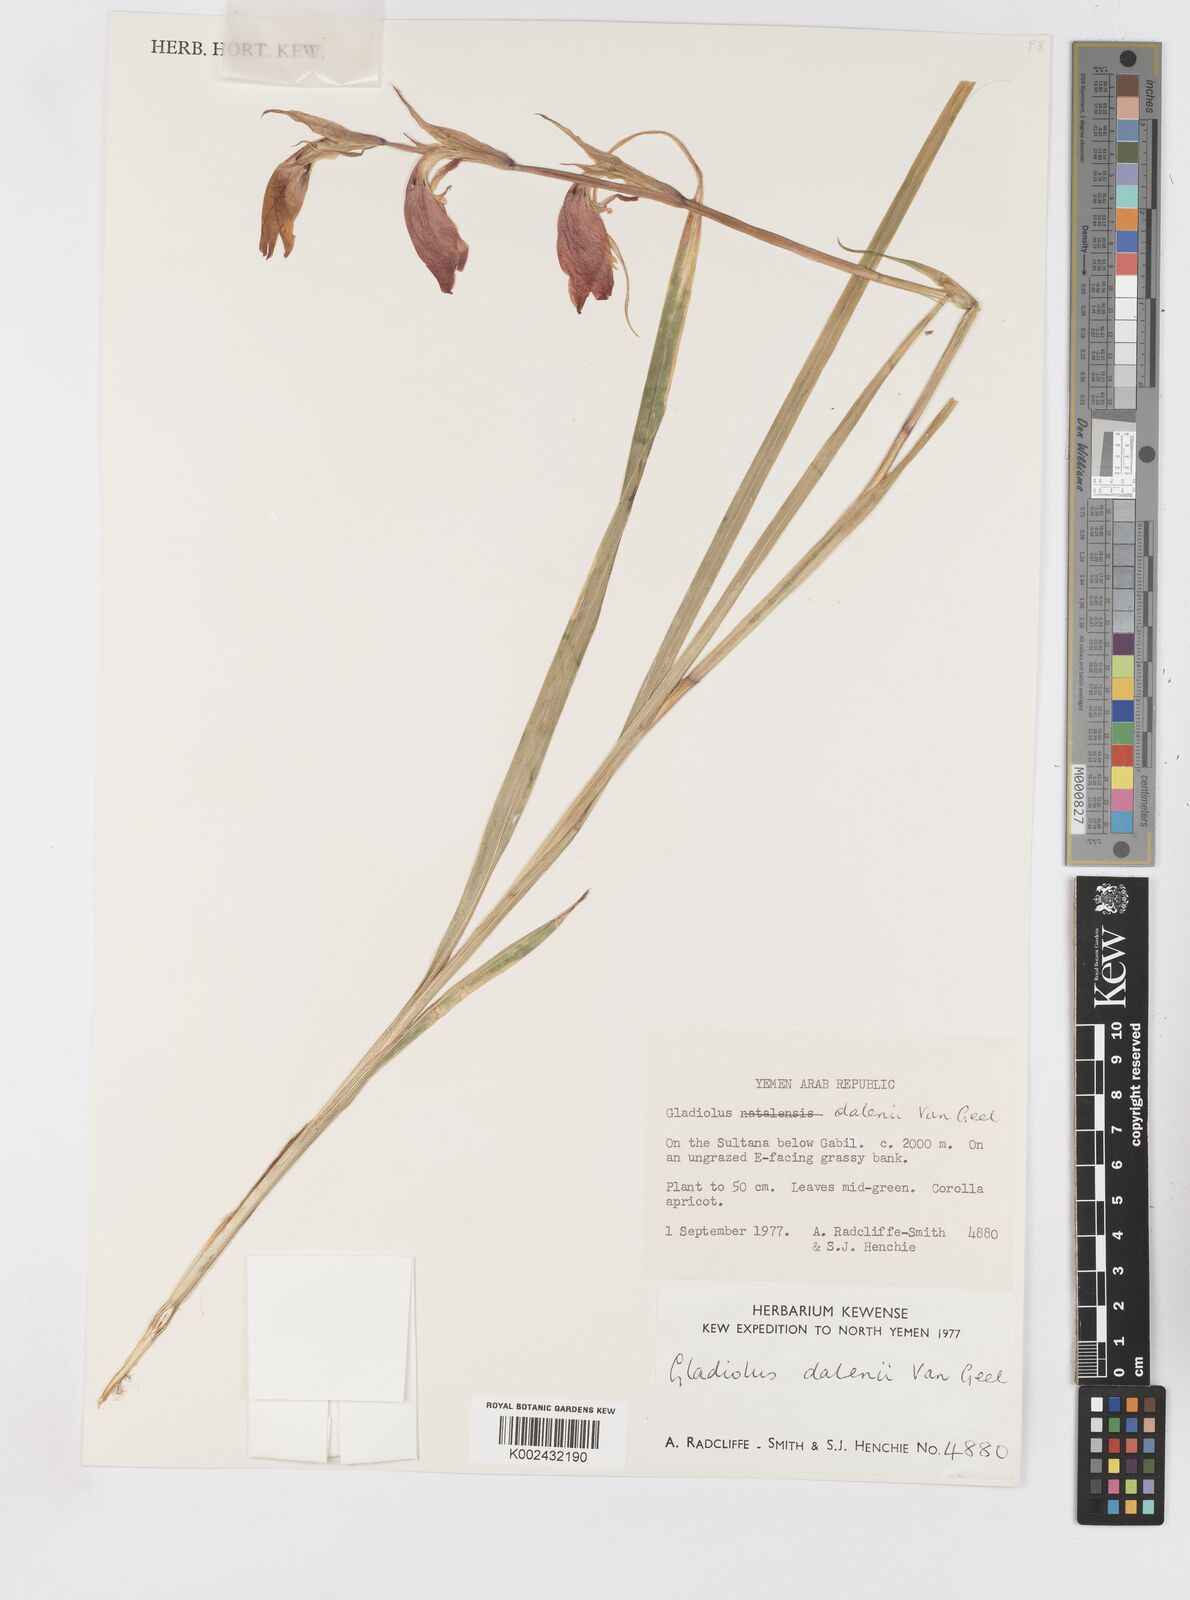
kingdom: Plantae
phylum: Tracheophyta
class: Liliopsida
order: Asparagales
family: Iridaceae
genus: Gladiolus
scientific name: Gladiolus dalenii
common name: Cornflag
